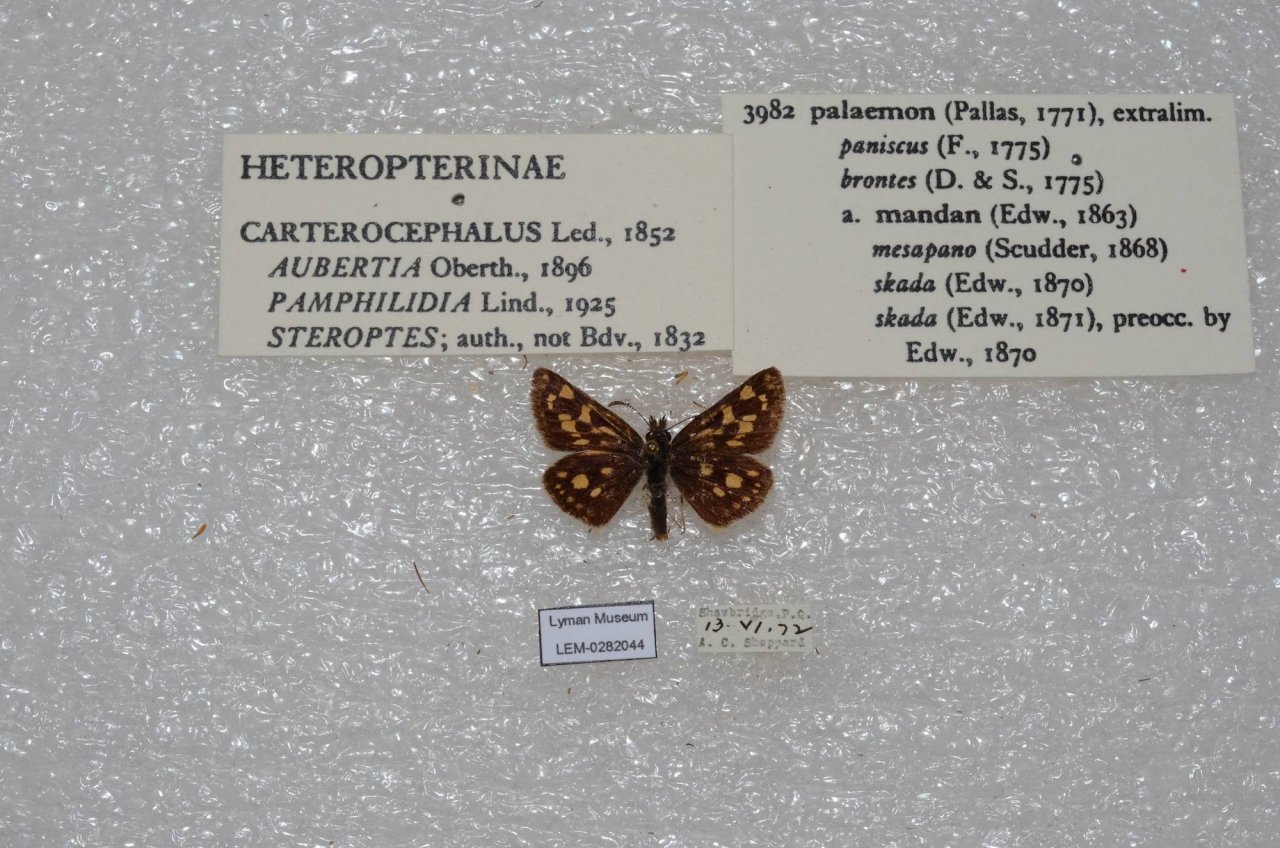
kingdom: Animalia
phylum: Arthropoda
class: Insecta
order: Lepidoptera
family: Hesperiidae
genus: Carterocephalus
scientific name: Carterocephalus palaemon
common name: Chequered Skipper
